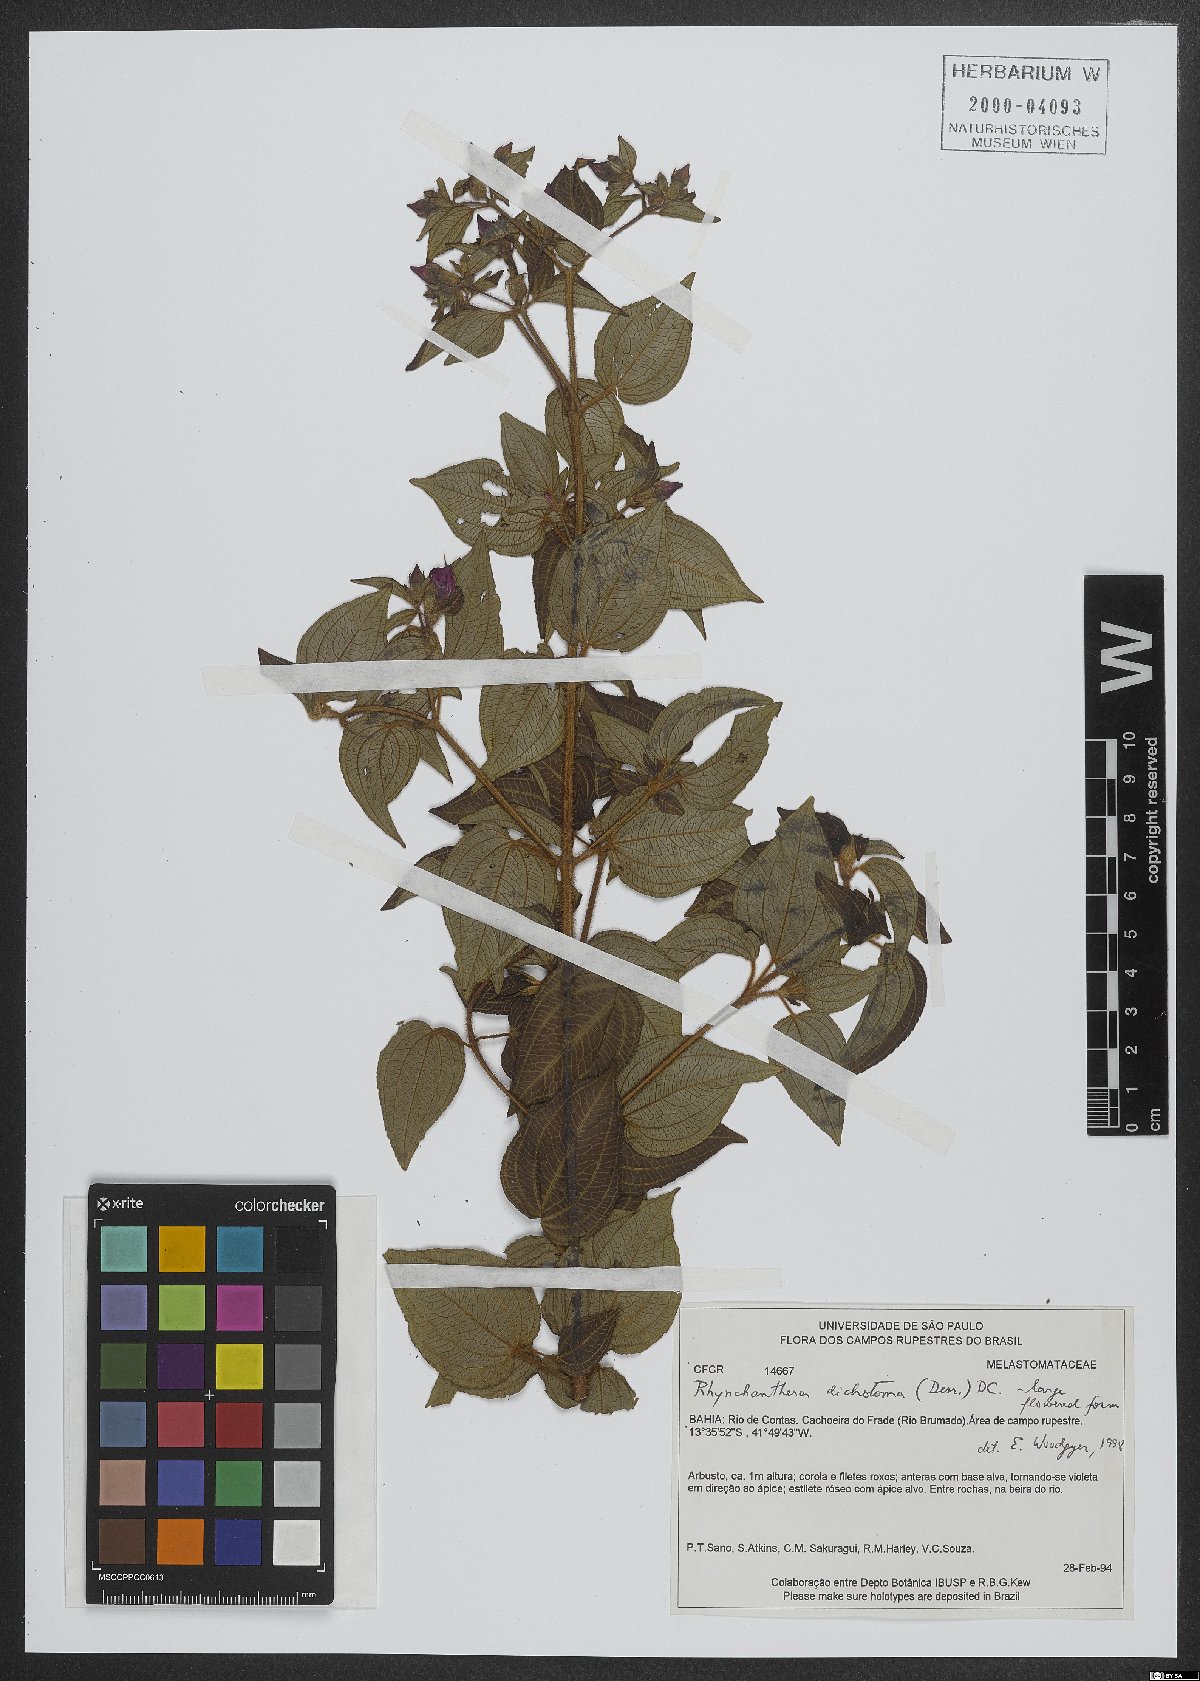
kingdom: Plantae
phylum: Tracheophyta
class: Magnoliopsida
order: Myrtales
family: Melastomataceae
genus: Rhynchanthera
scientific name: Rhynchanthera dichotoma
